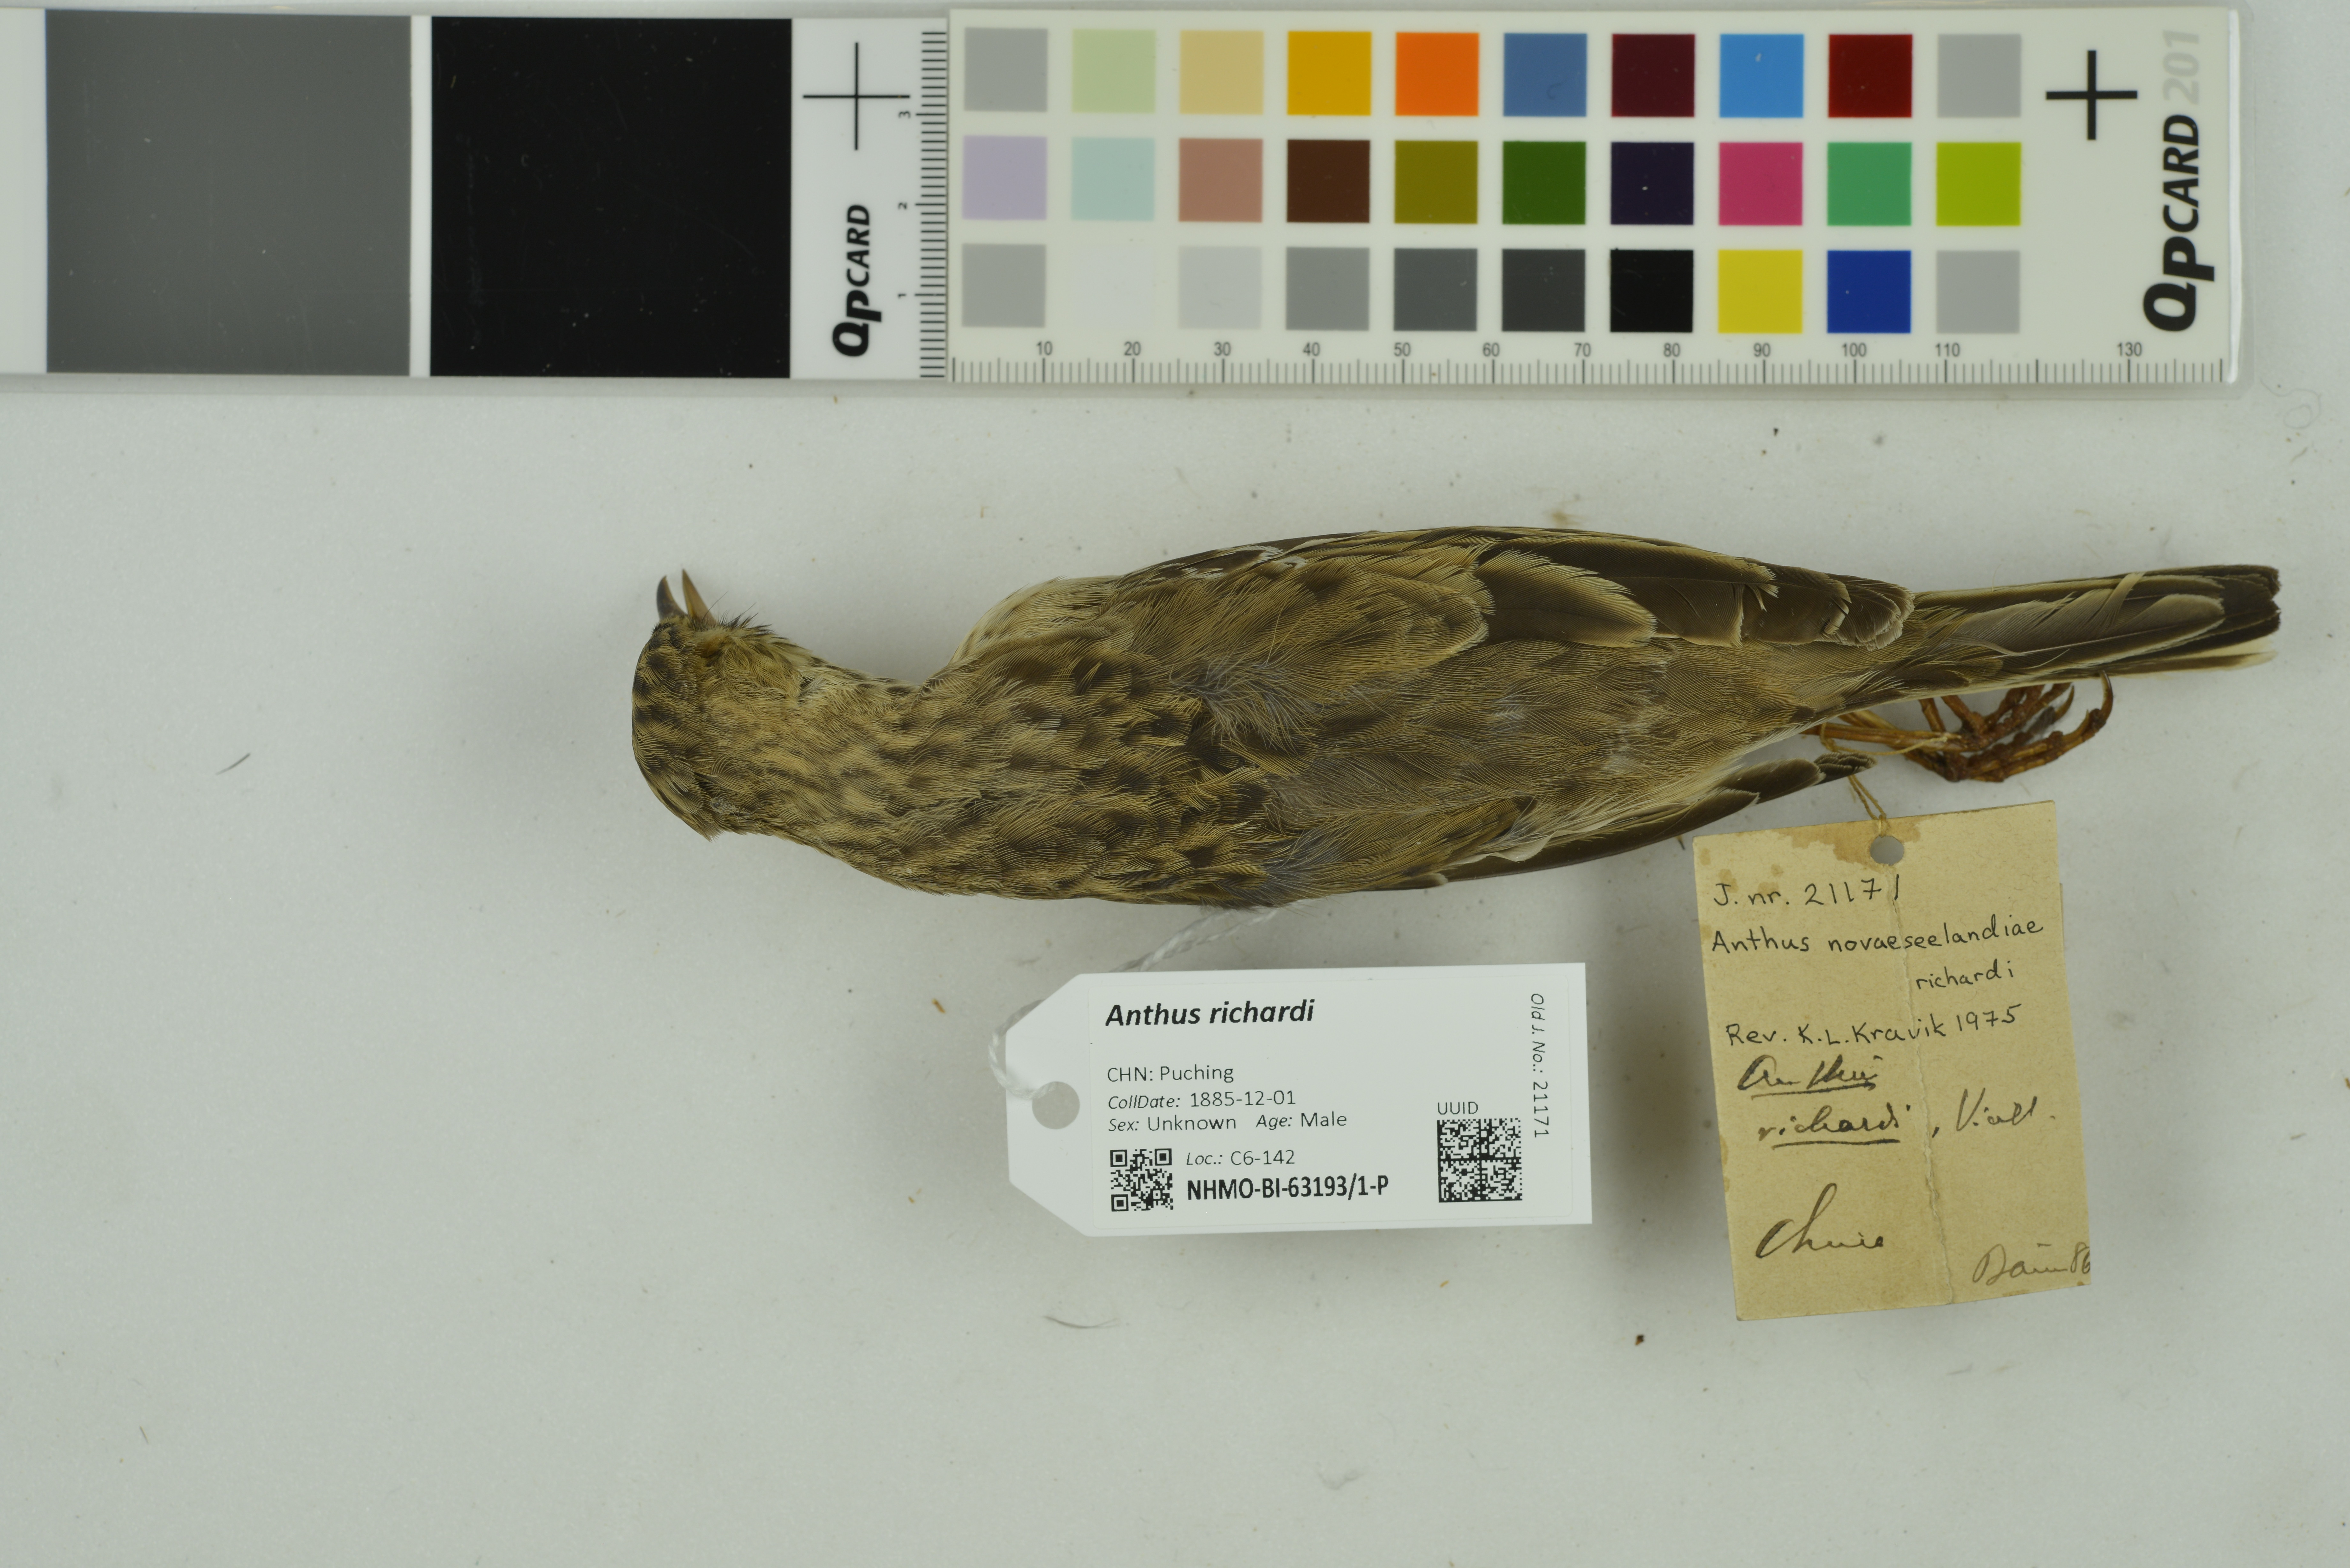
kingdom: Animalia
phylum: Chordata
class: Aves
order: Passeriformes
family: Motacillidae
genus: Anthus
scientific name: Anthus richardi
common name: Richard's pipit
